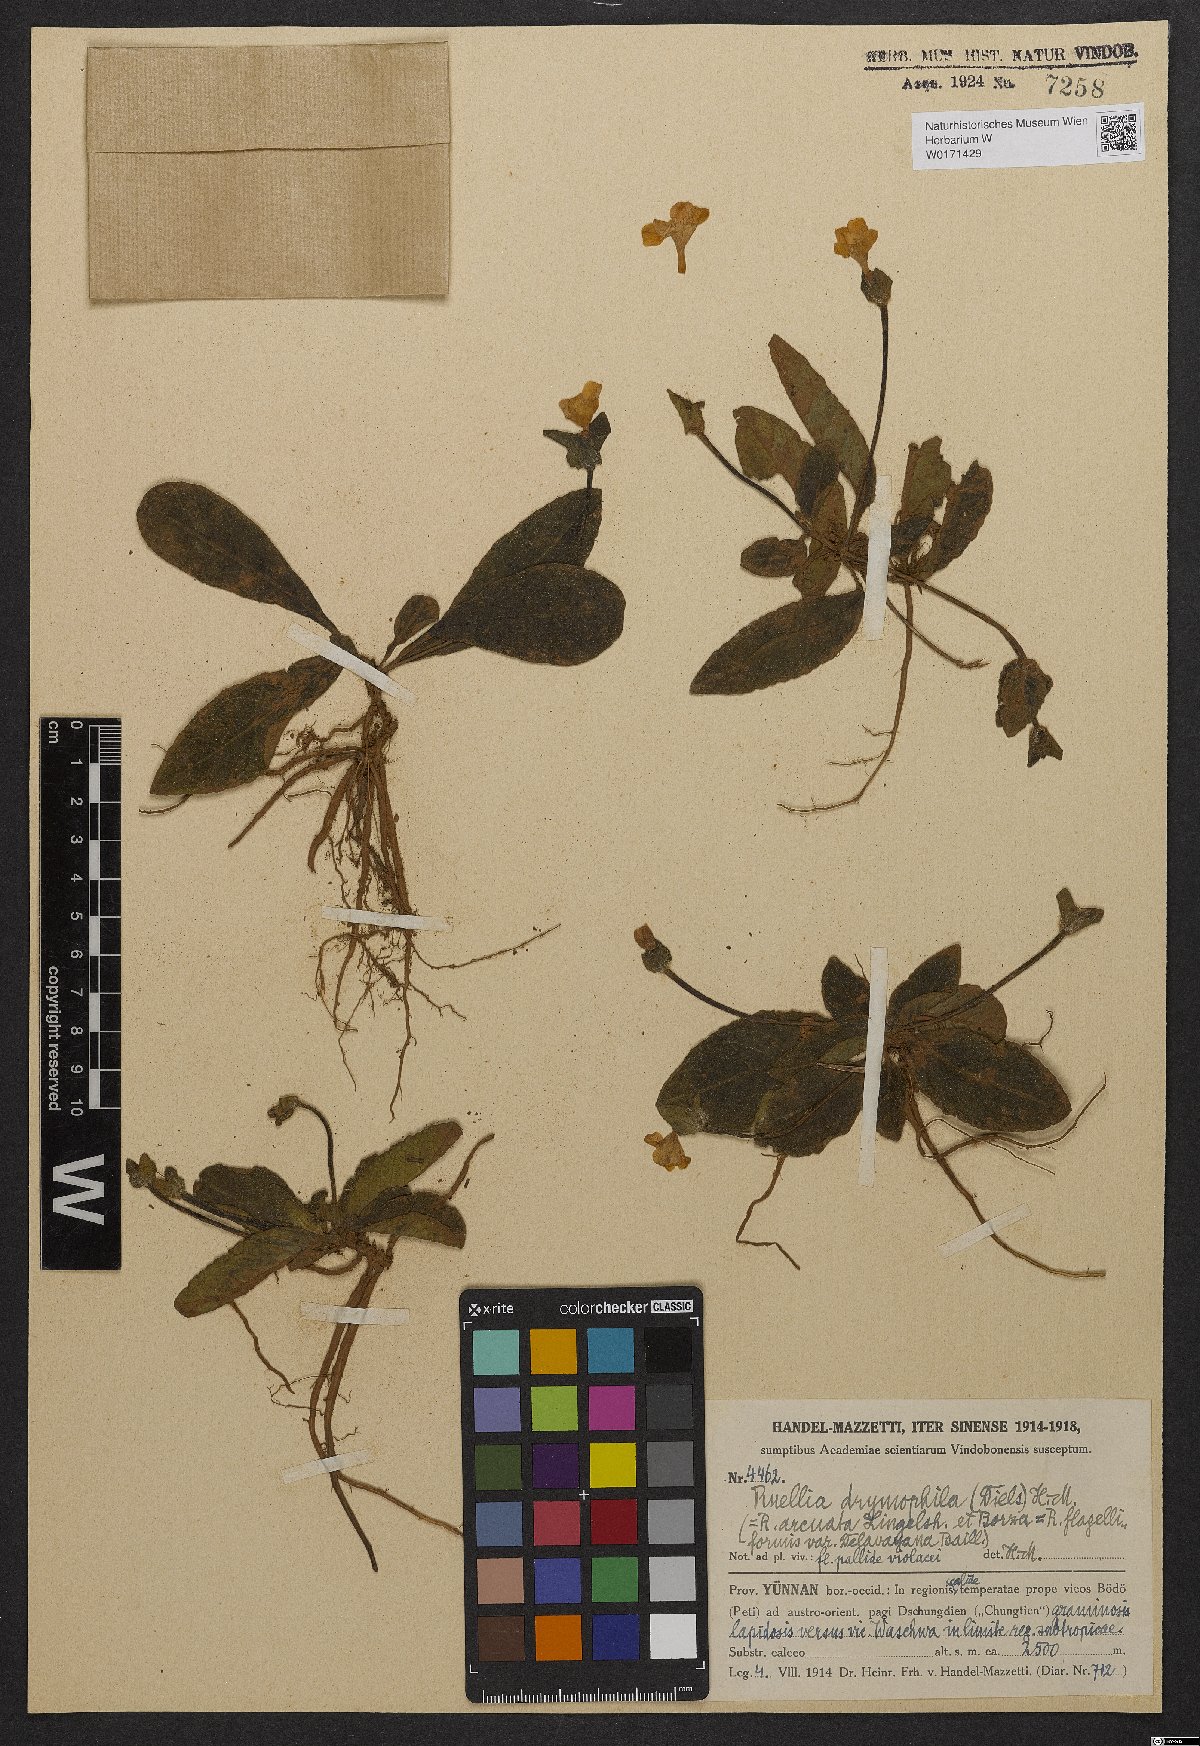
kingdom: Plantae
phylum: Tracheophyta
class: Magnoliopsida
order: Lamiales
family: Acanthaceae
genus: Pararuellia
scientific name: Pararuellia delavayana
